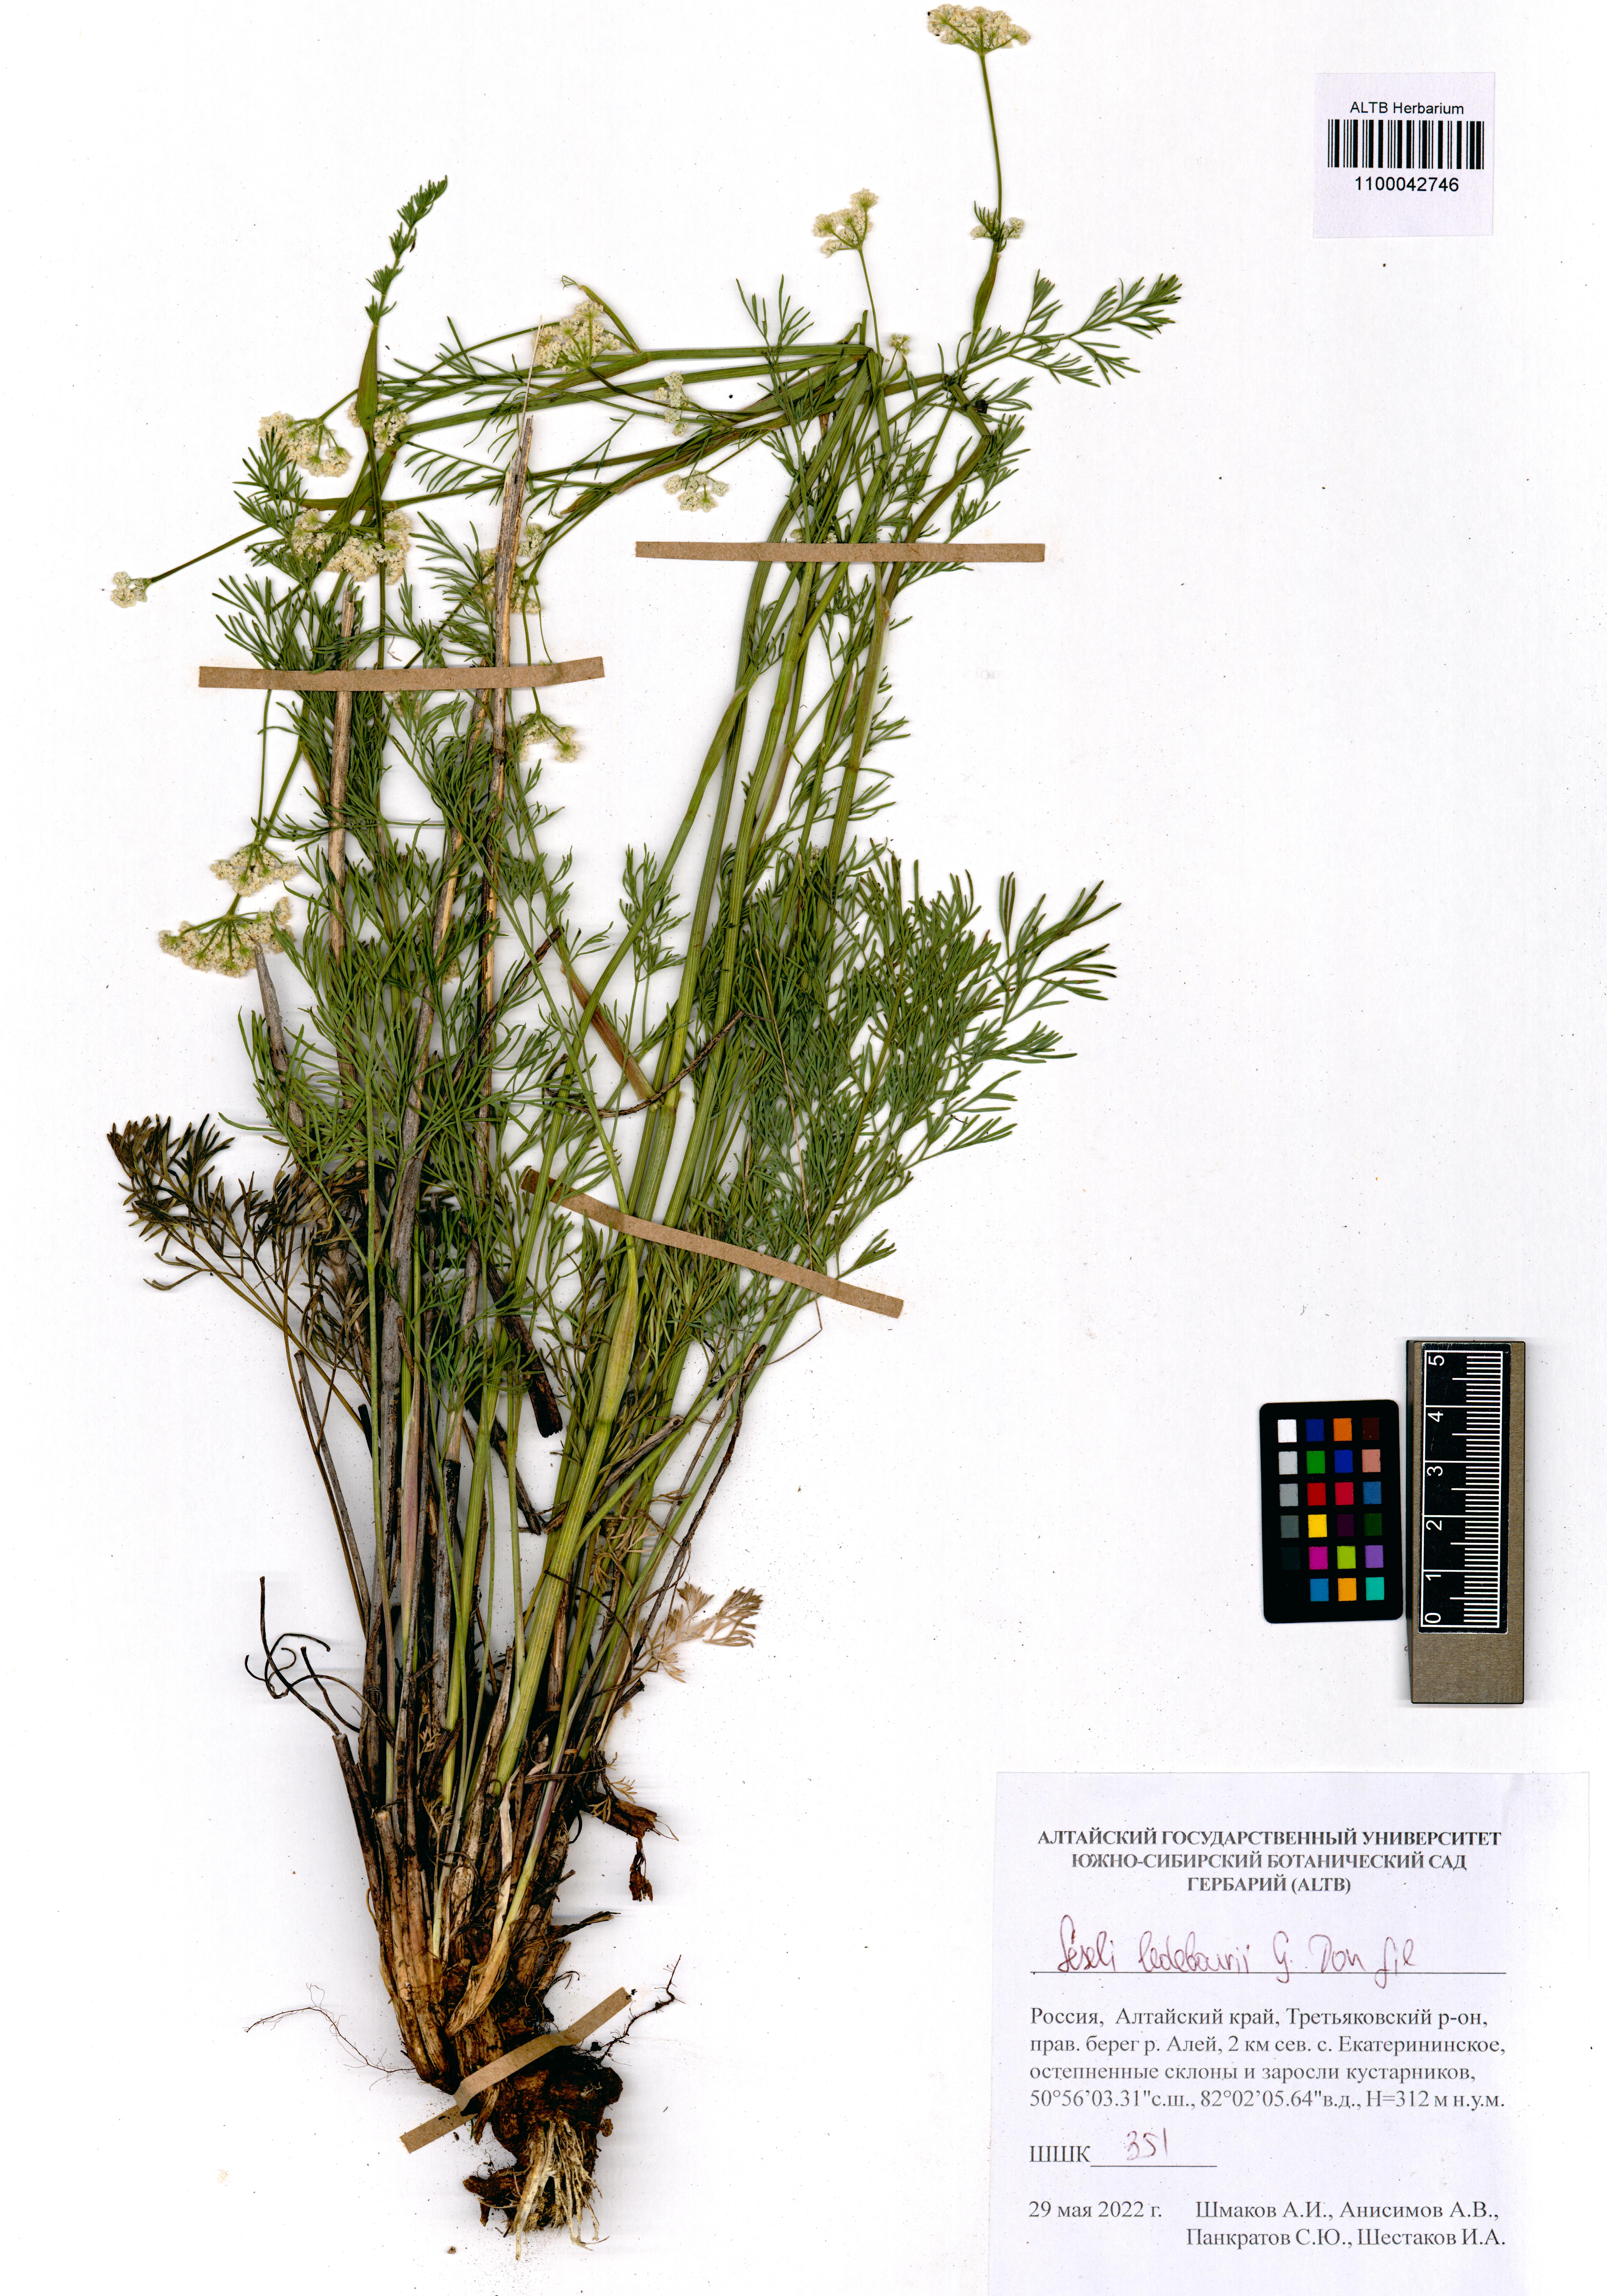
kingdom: Plantae
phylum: Tracheophyta
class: Magnoliopsida
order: Apiales
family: Apiaceae
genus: Seseli
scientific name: Seseli ledebourii
